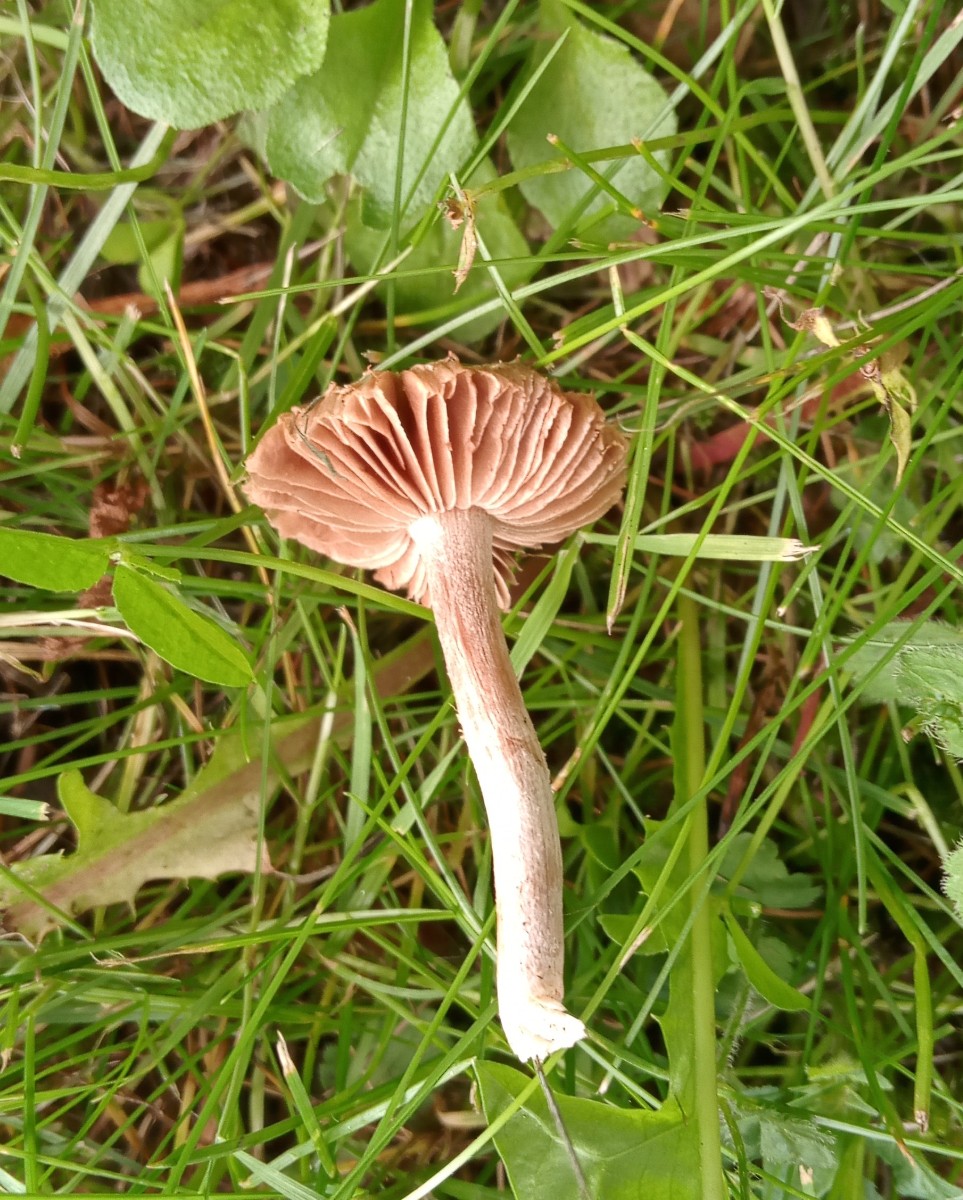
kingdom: Fungi
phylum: Basidiomycota
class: Agaricomycetes
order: Agaricales
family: Inocybaceae
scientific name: Inocybaceae
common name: trævlhatfamilien
